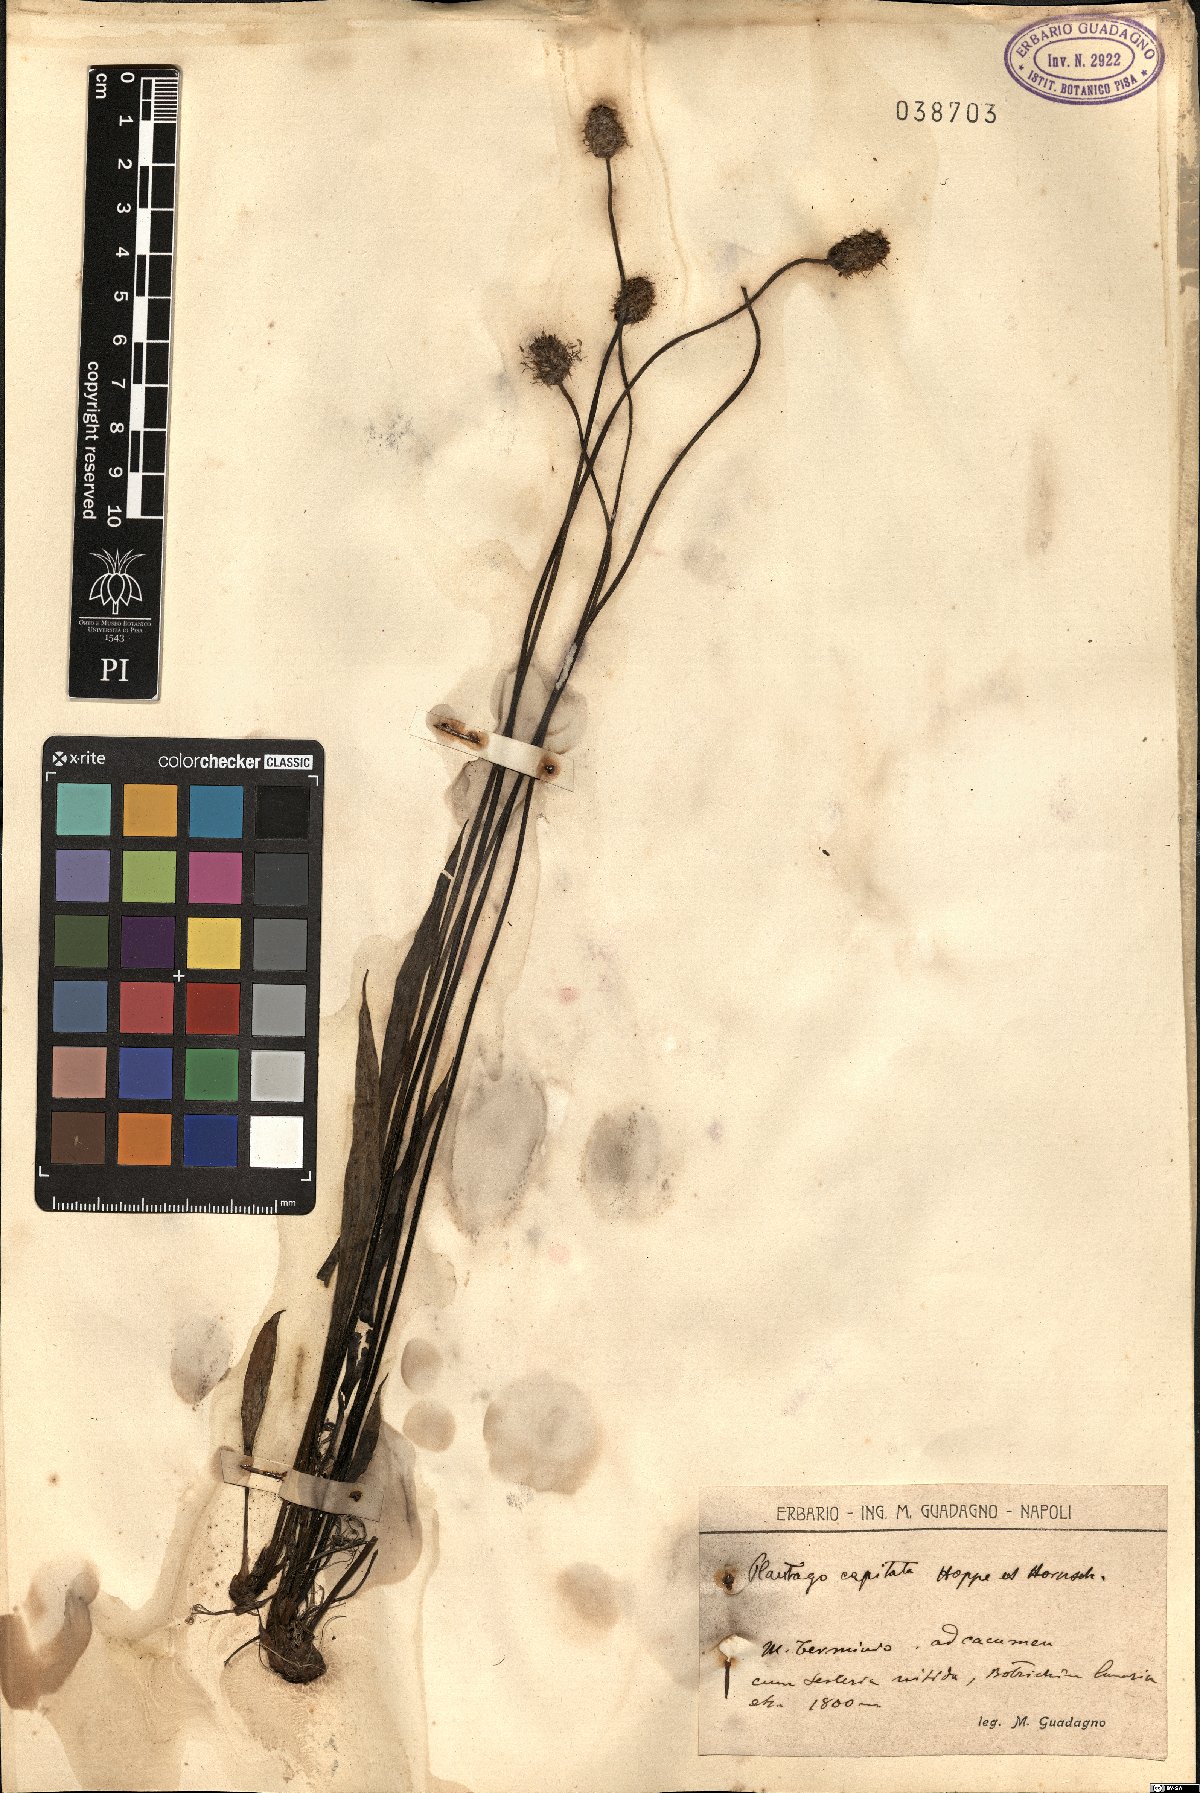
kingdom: Plantae
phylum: Tracheophyta
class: Magnoliopsida
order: Lamiales
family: Plantaginaceae
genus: Plantago
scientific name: Plantago capitata
